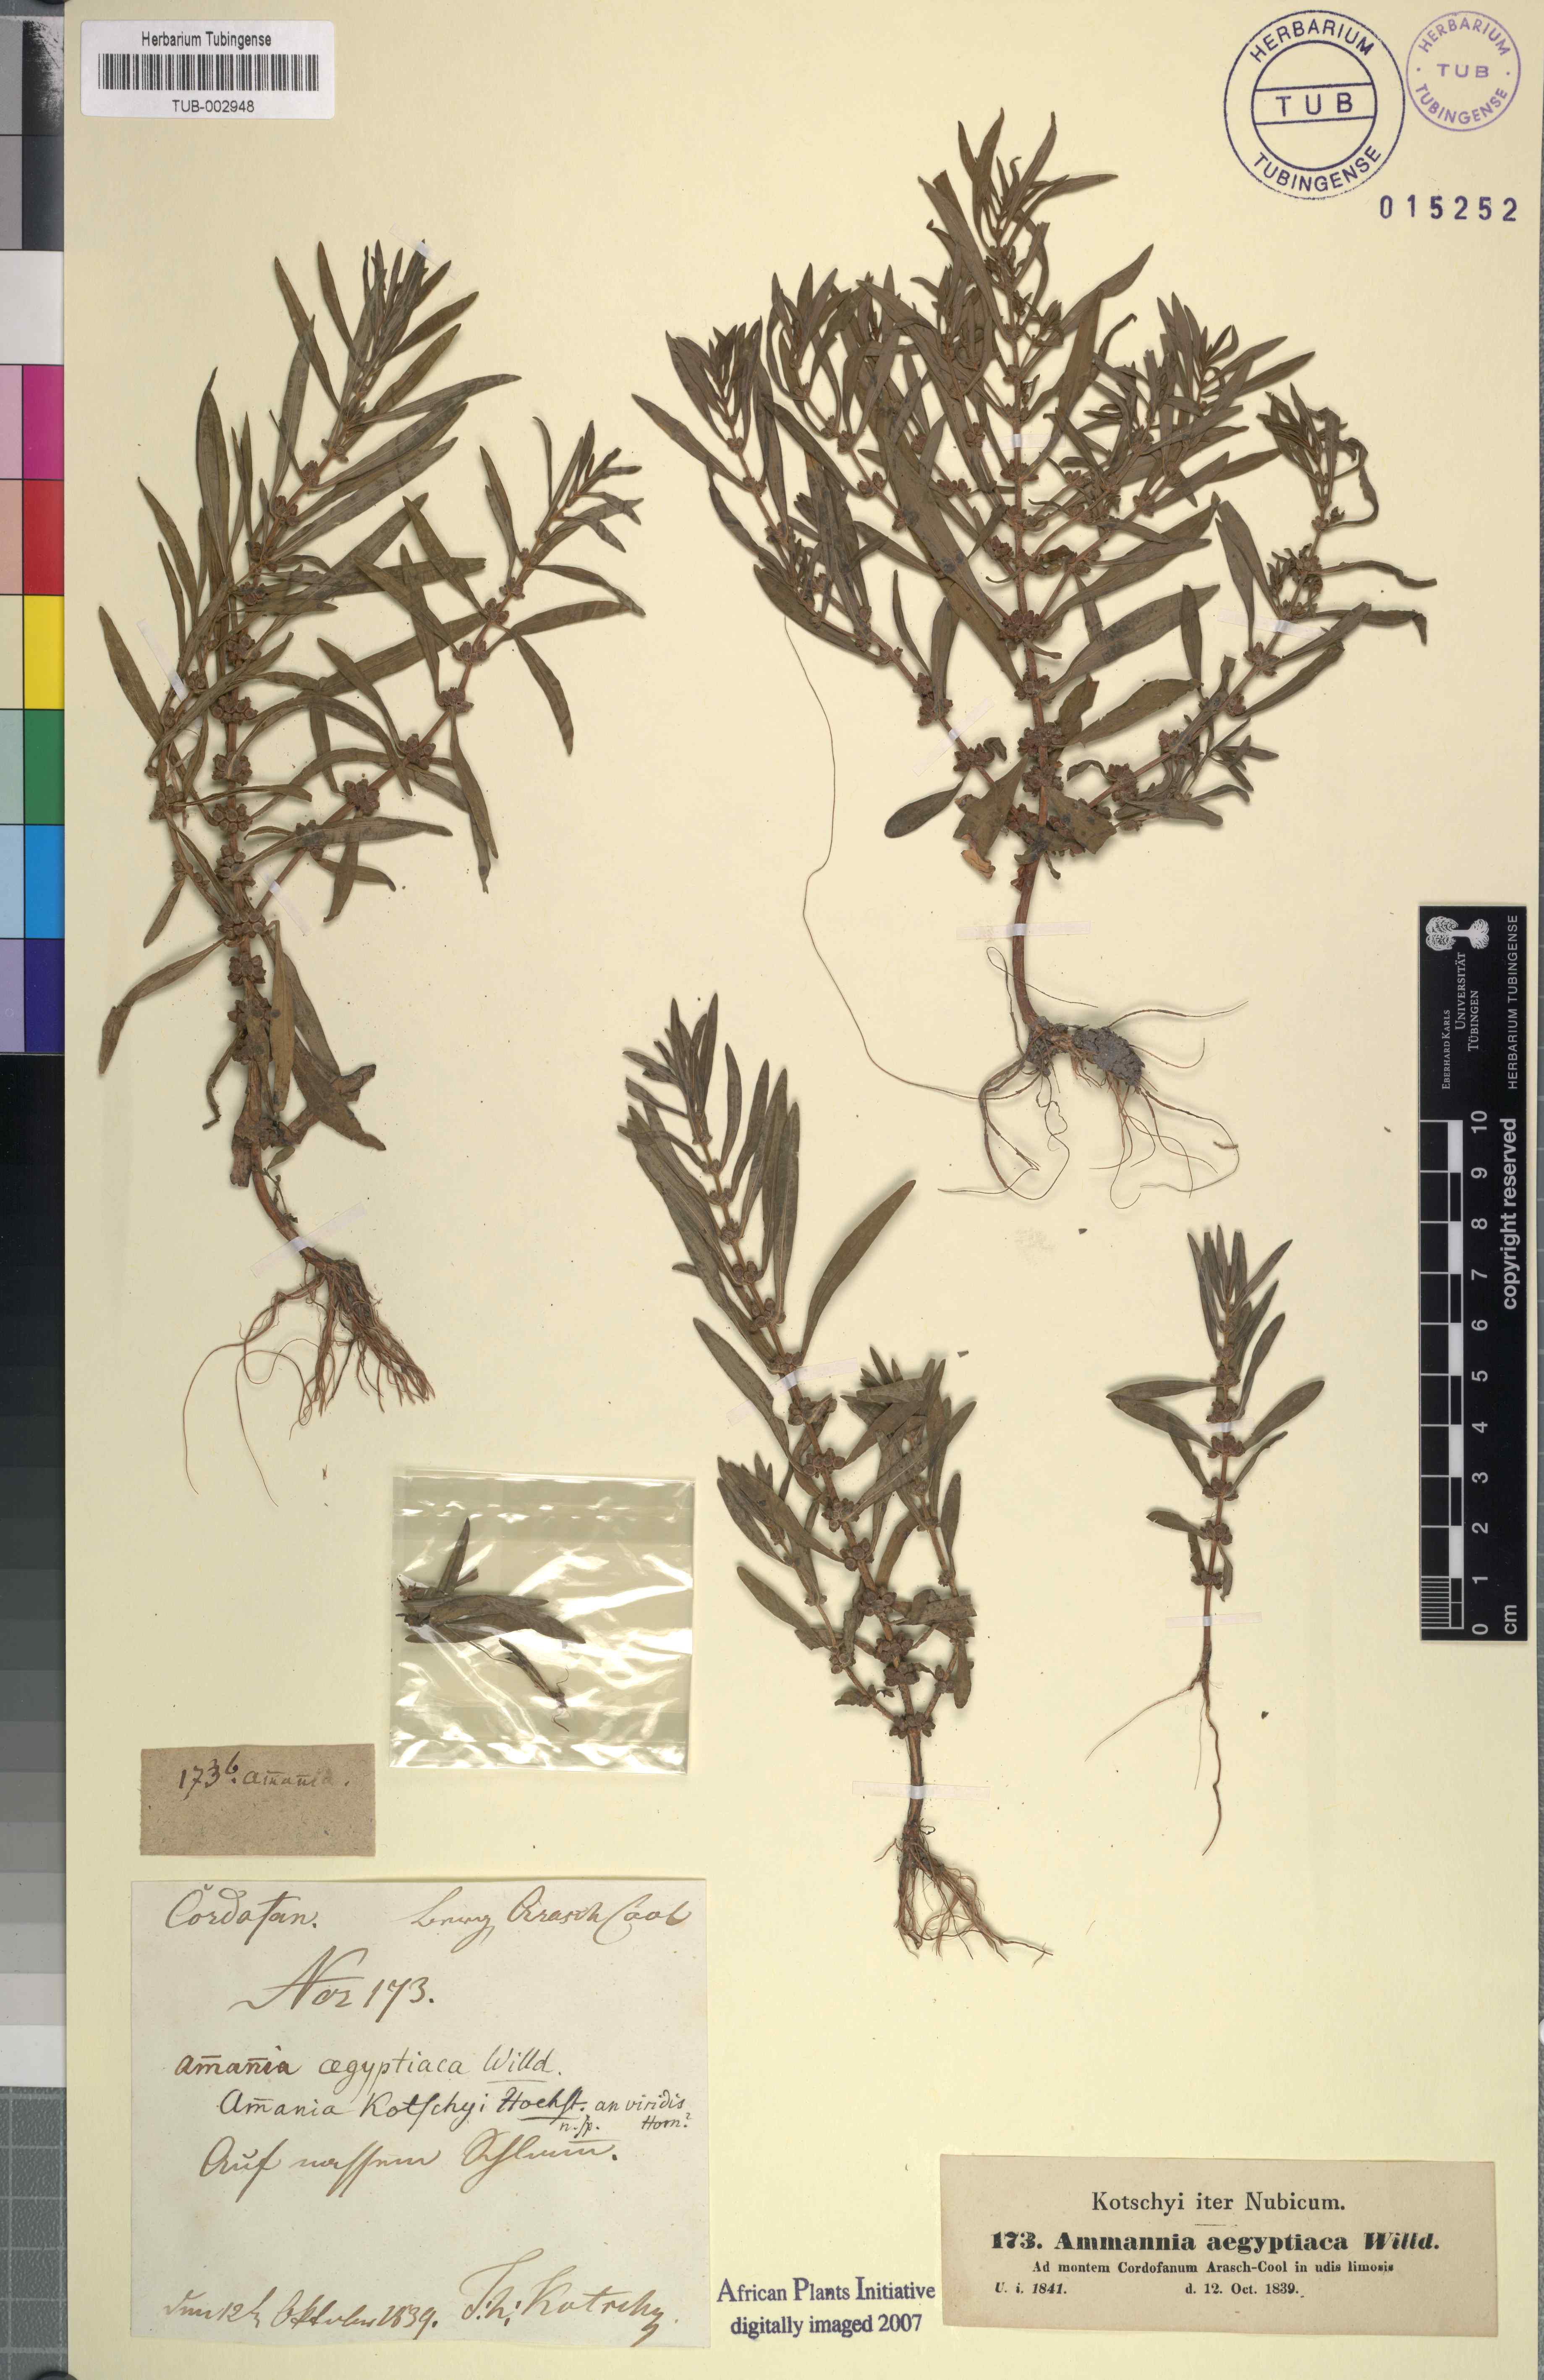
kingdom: Plantae
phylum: Tracheophyta
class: Magnoliopsida
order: Myrtales
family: Lythraceae
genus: Ammannia
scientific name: Ammannia baccifera
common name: Blistering ammania
